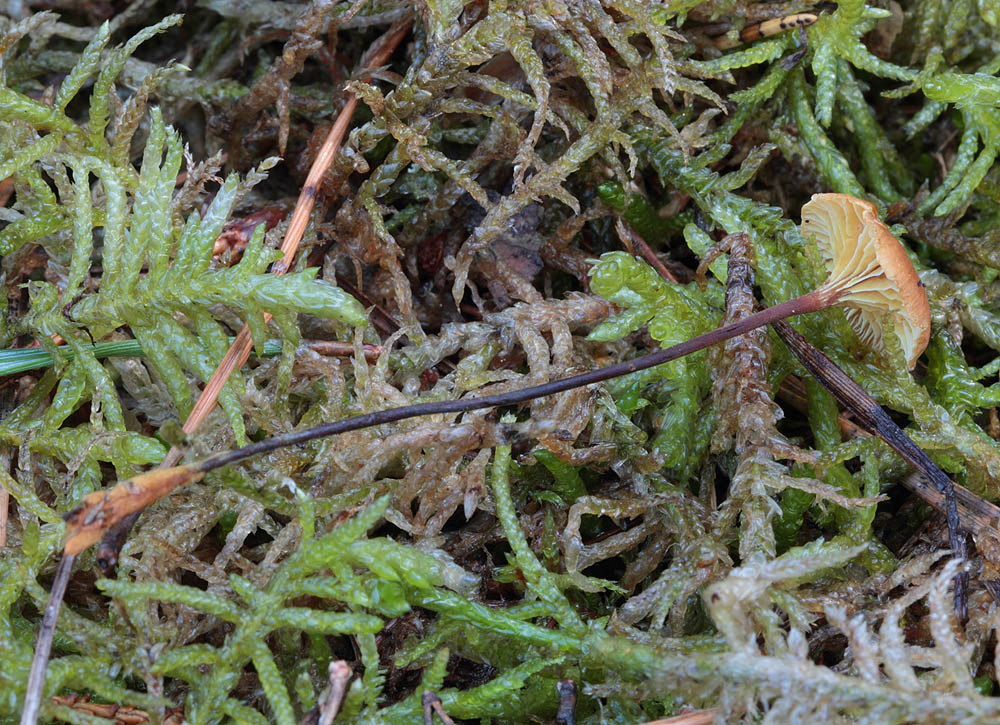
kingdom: Fungi
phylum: Basidiomycota
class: Agaricomycetes
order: Agaricales
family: Mycenaceae
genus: Xeromphalina
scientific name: Xeromphalina cauticinalis
